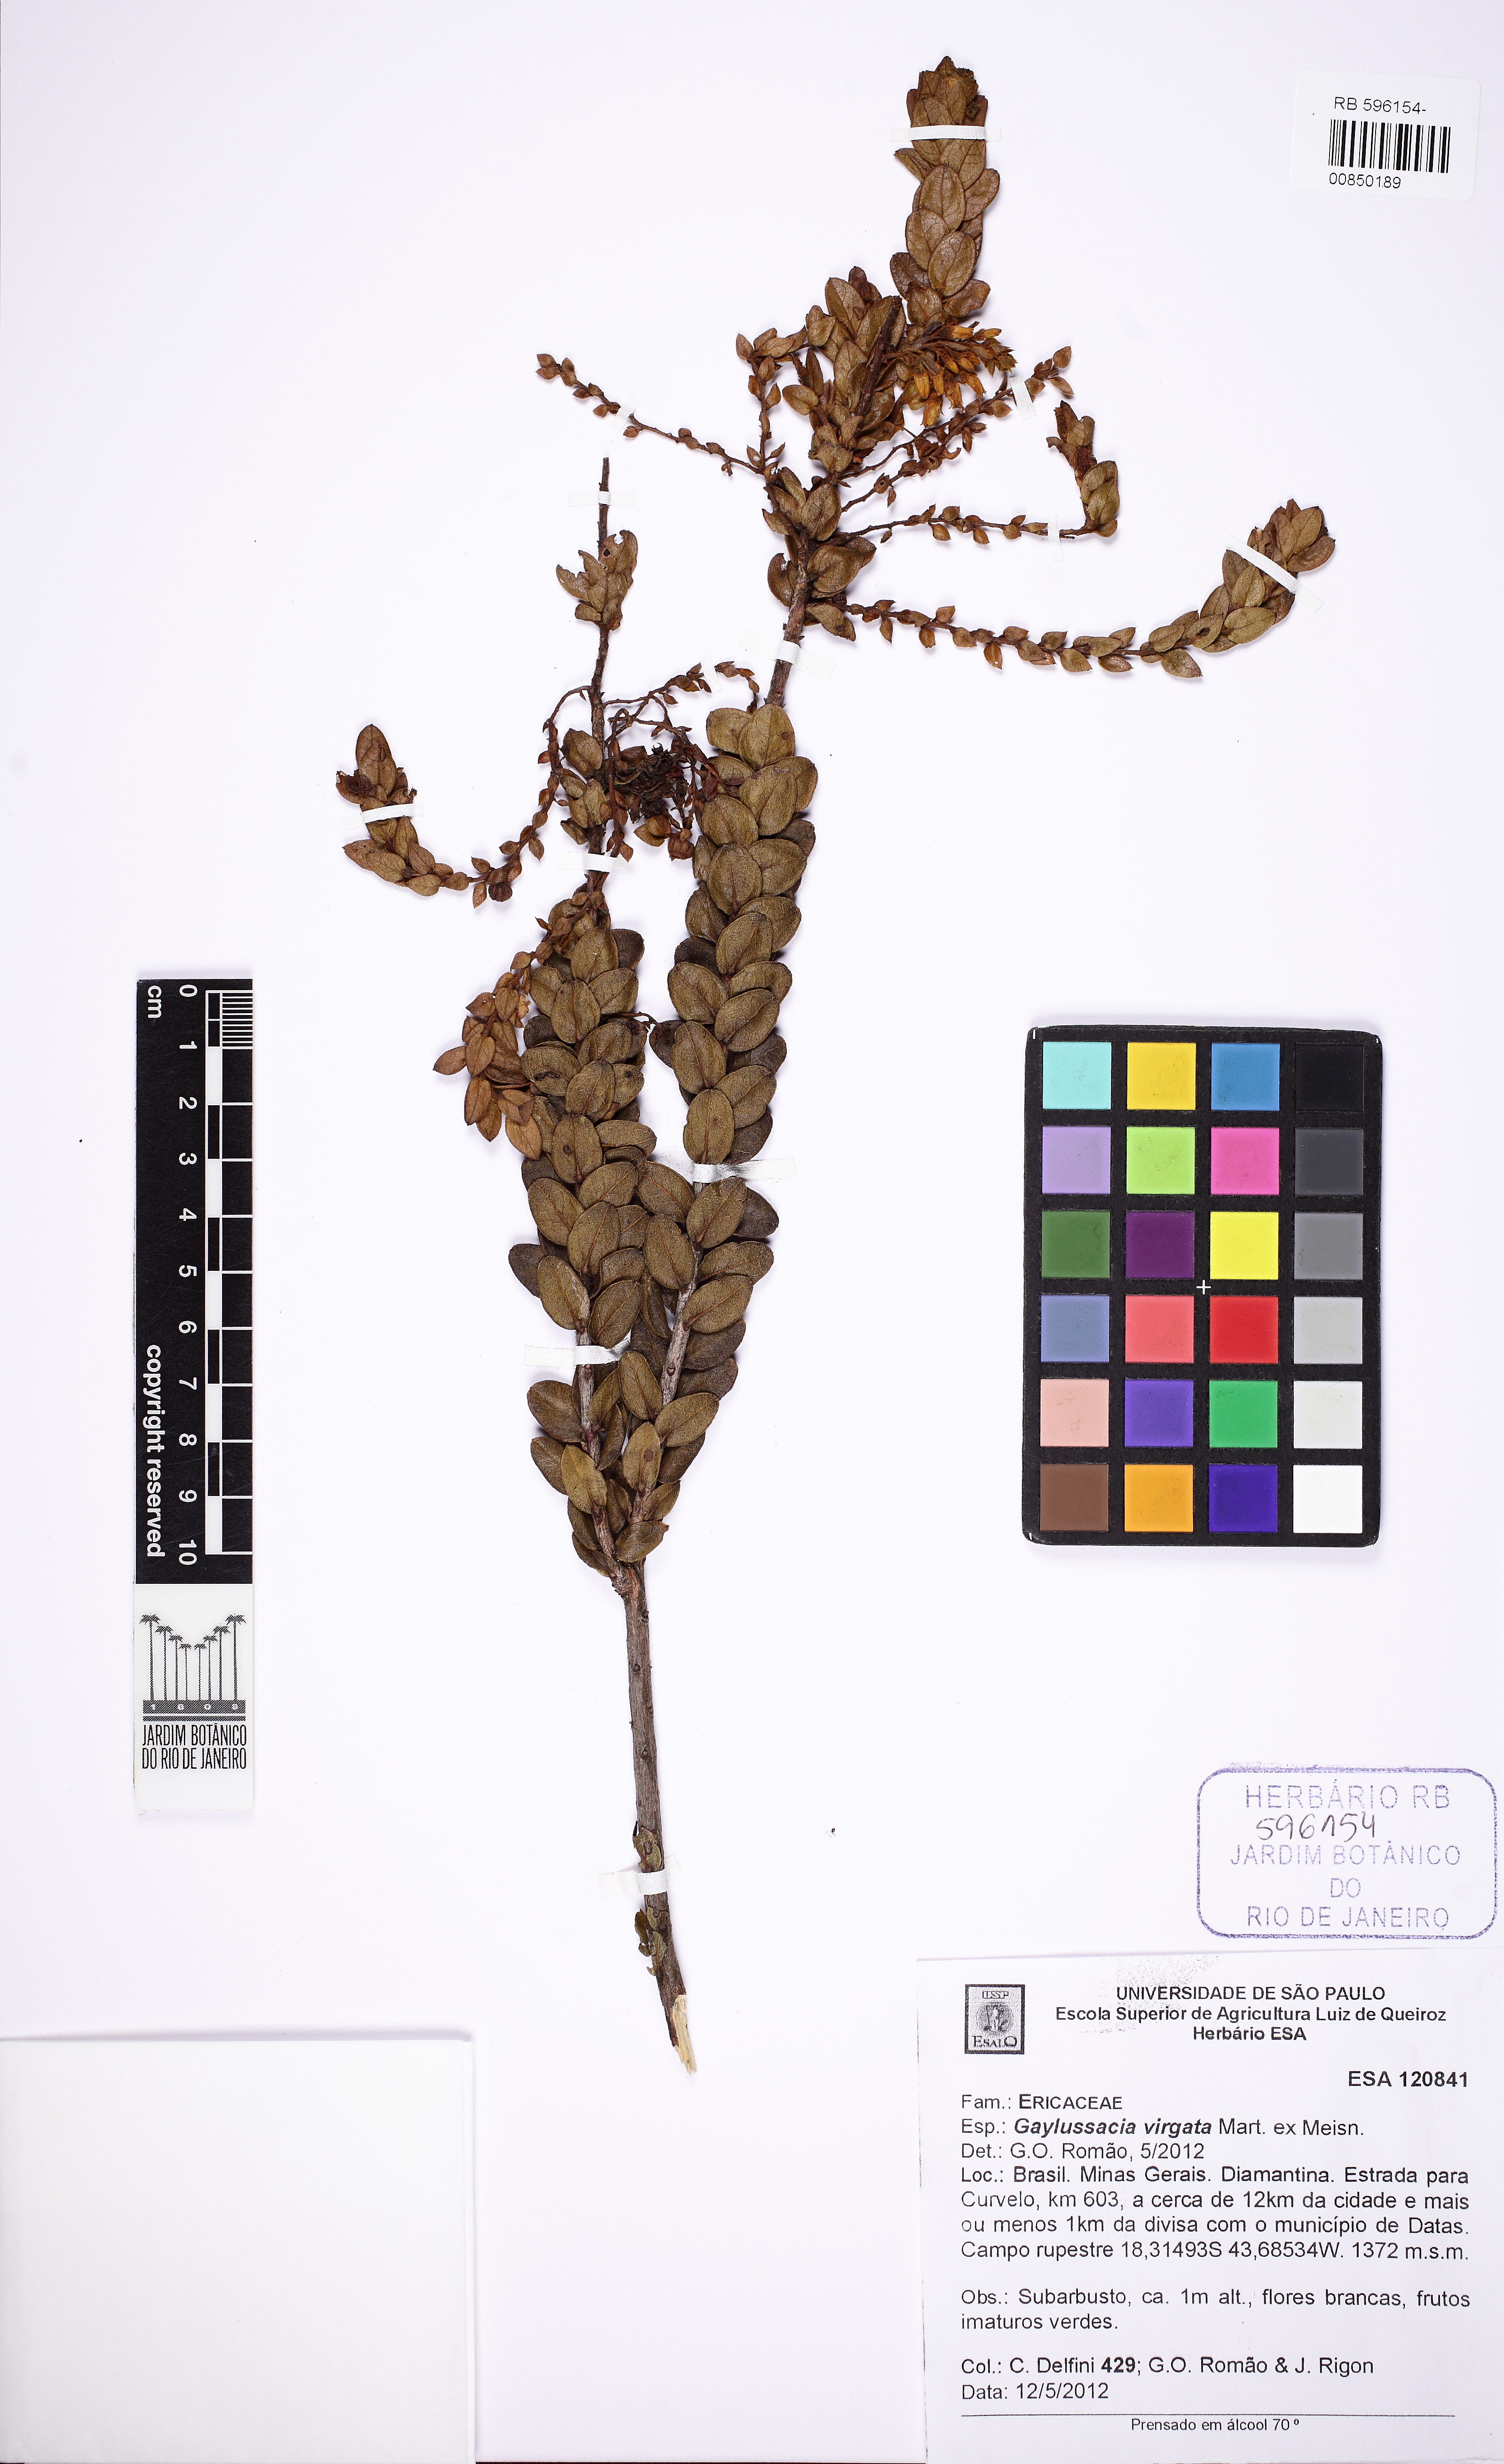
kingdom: Plantae
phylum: Tracheophyta
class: Magnoliopsida
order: Ericales
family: Ericaceae
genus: Gaylussacia
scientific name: Gaylussacia virgata
